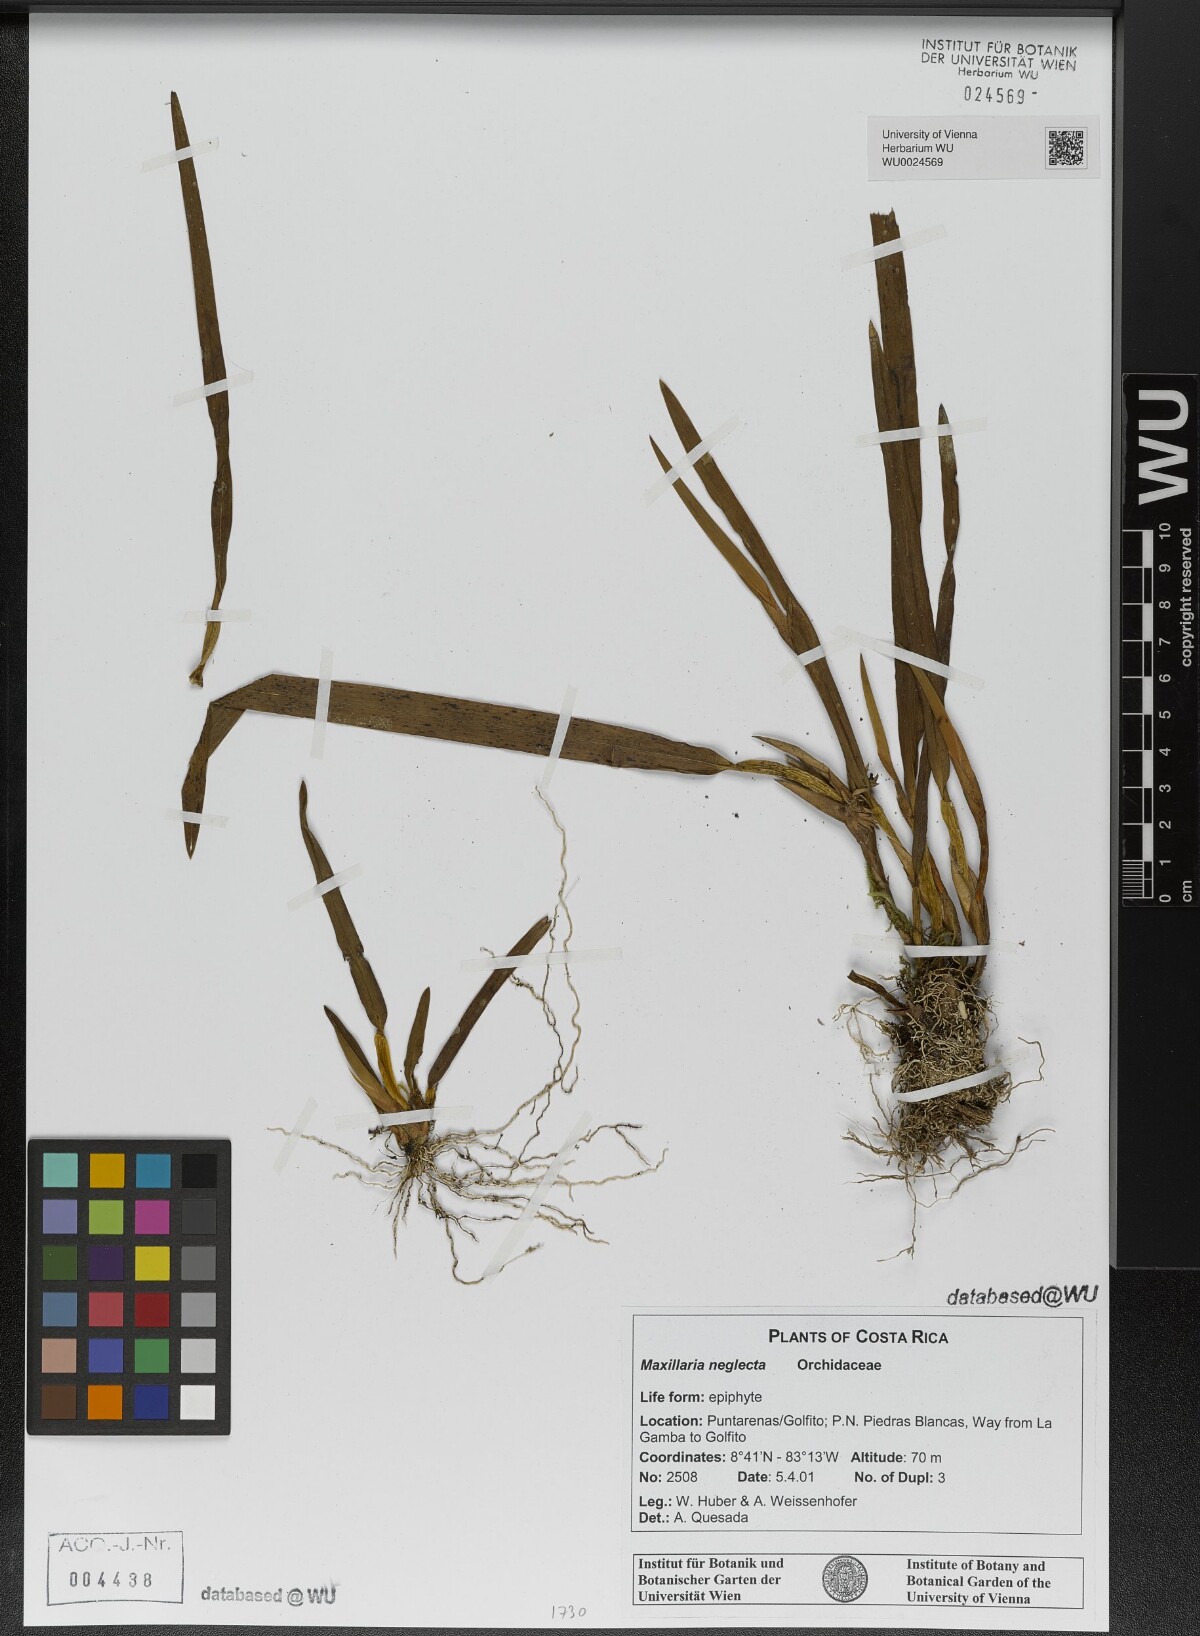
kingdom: Plantae
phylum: Tracheophyta
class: Liliopsida
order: Asparagales
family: Orchidaceae
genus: Maxillaria
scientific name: Maxillaria neglecta
